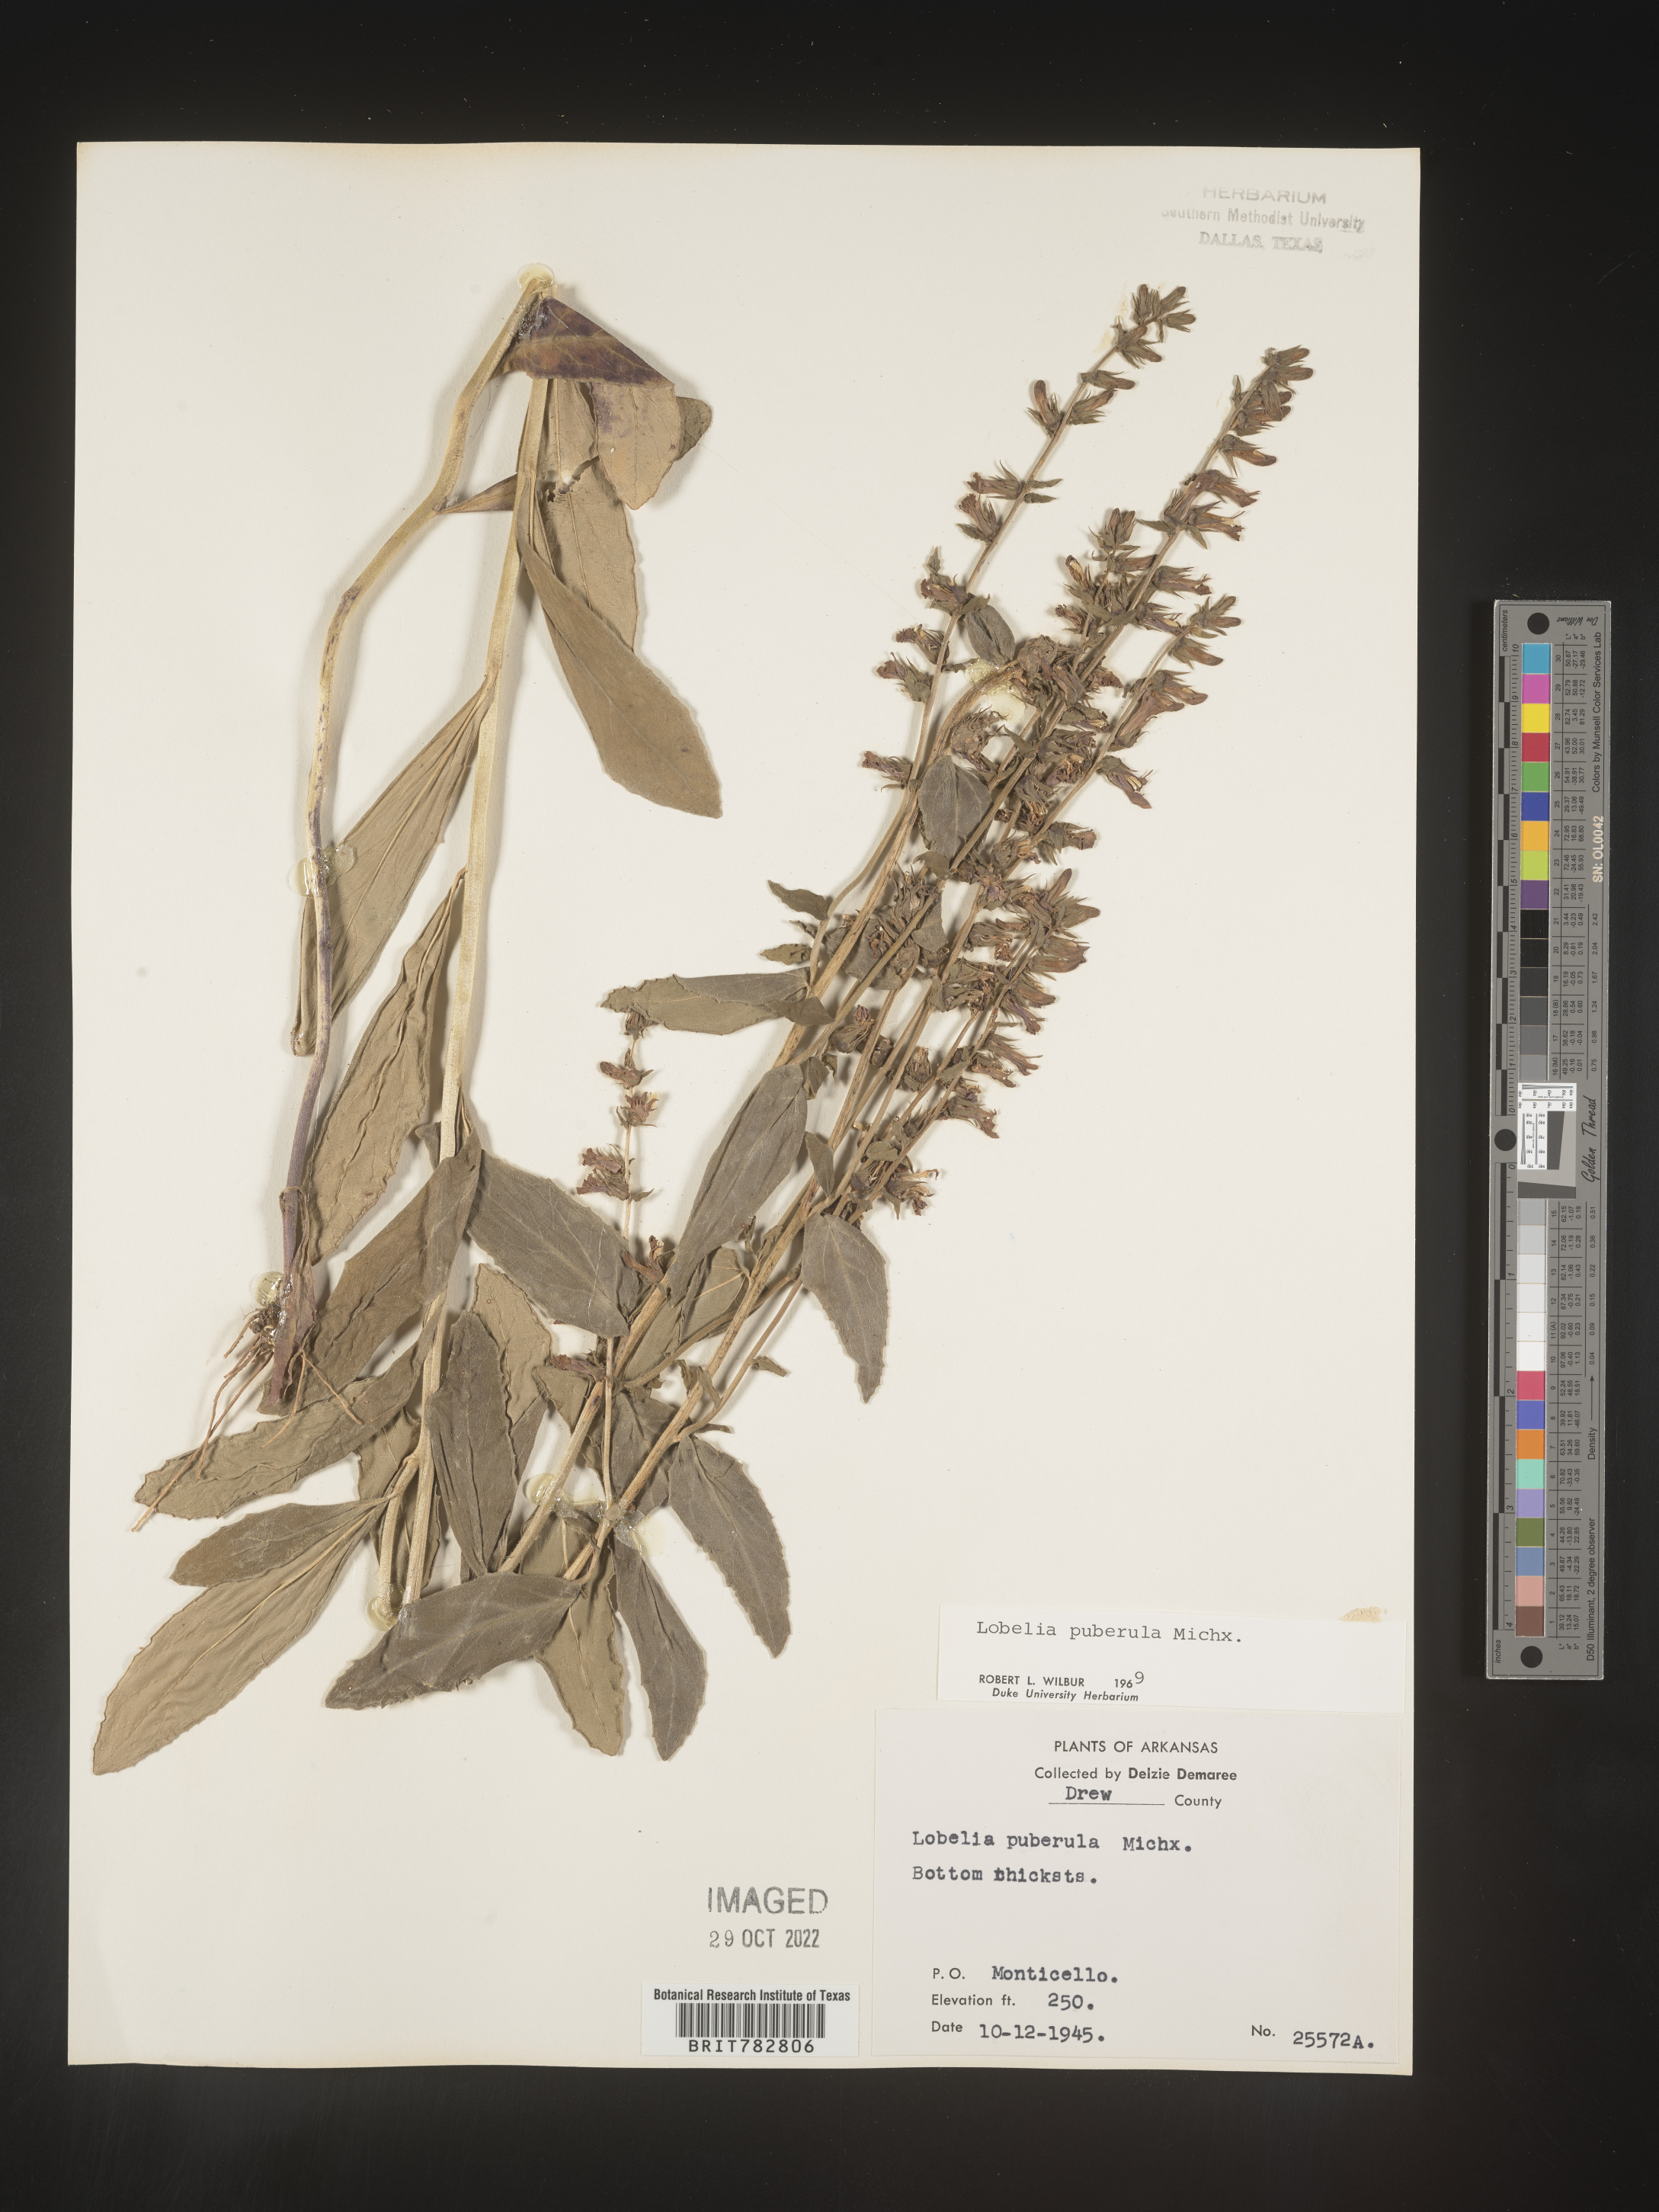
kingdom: Plantae
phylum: Tracheophyta
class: Magnoliopsida
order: Asterales
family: Campanulaceae
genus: Lobelia
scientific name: Lobelia puberula
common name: Purple dewdrop
